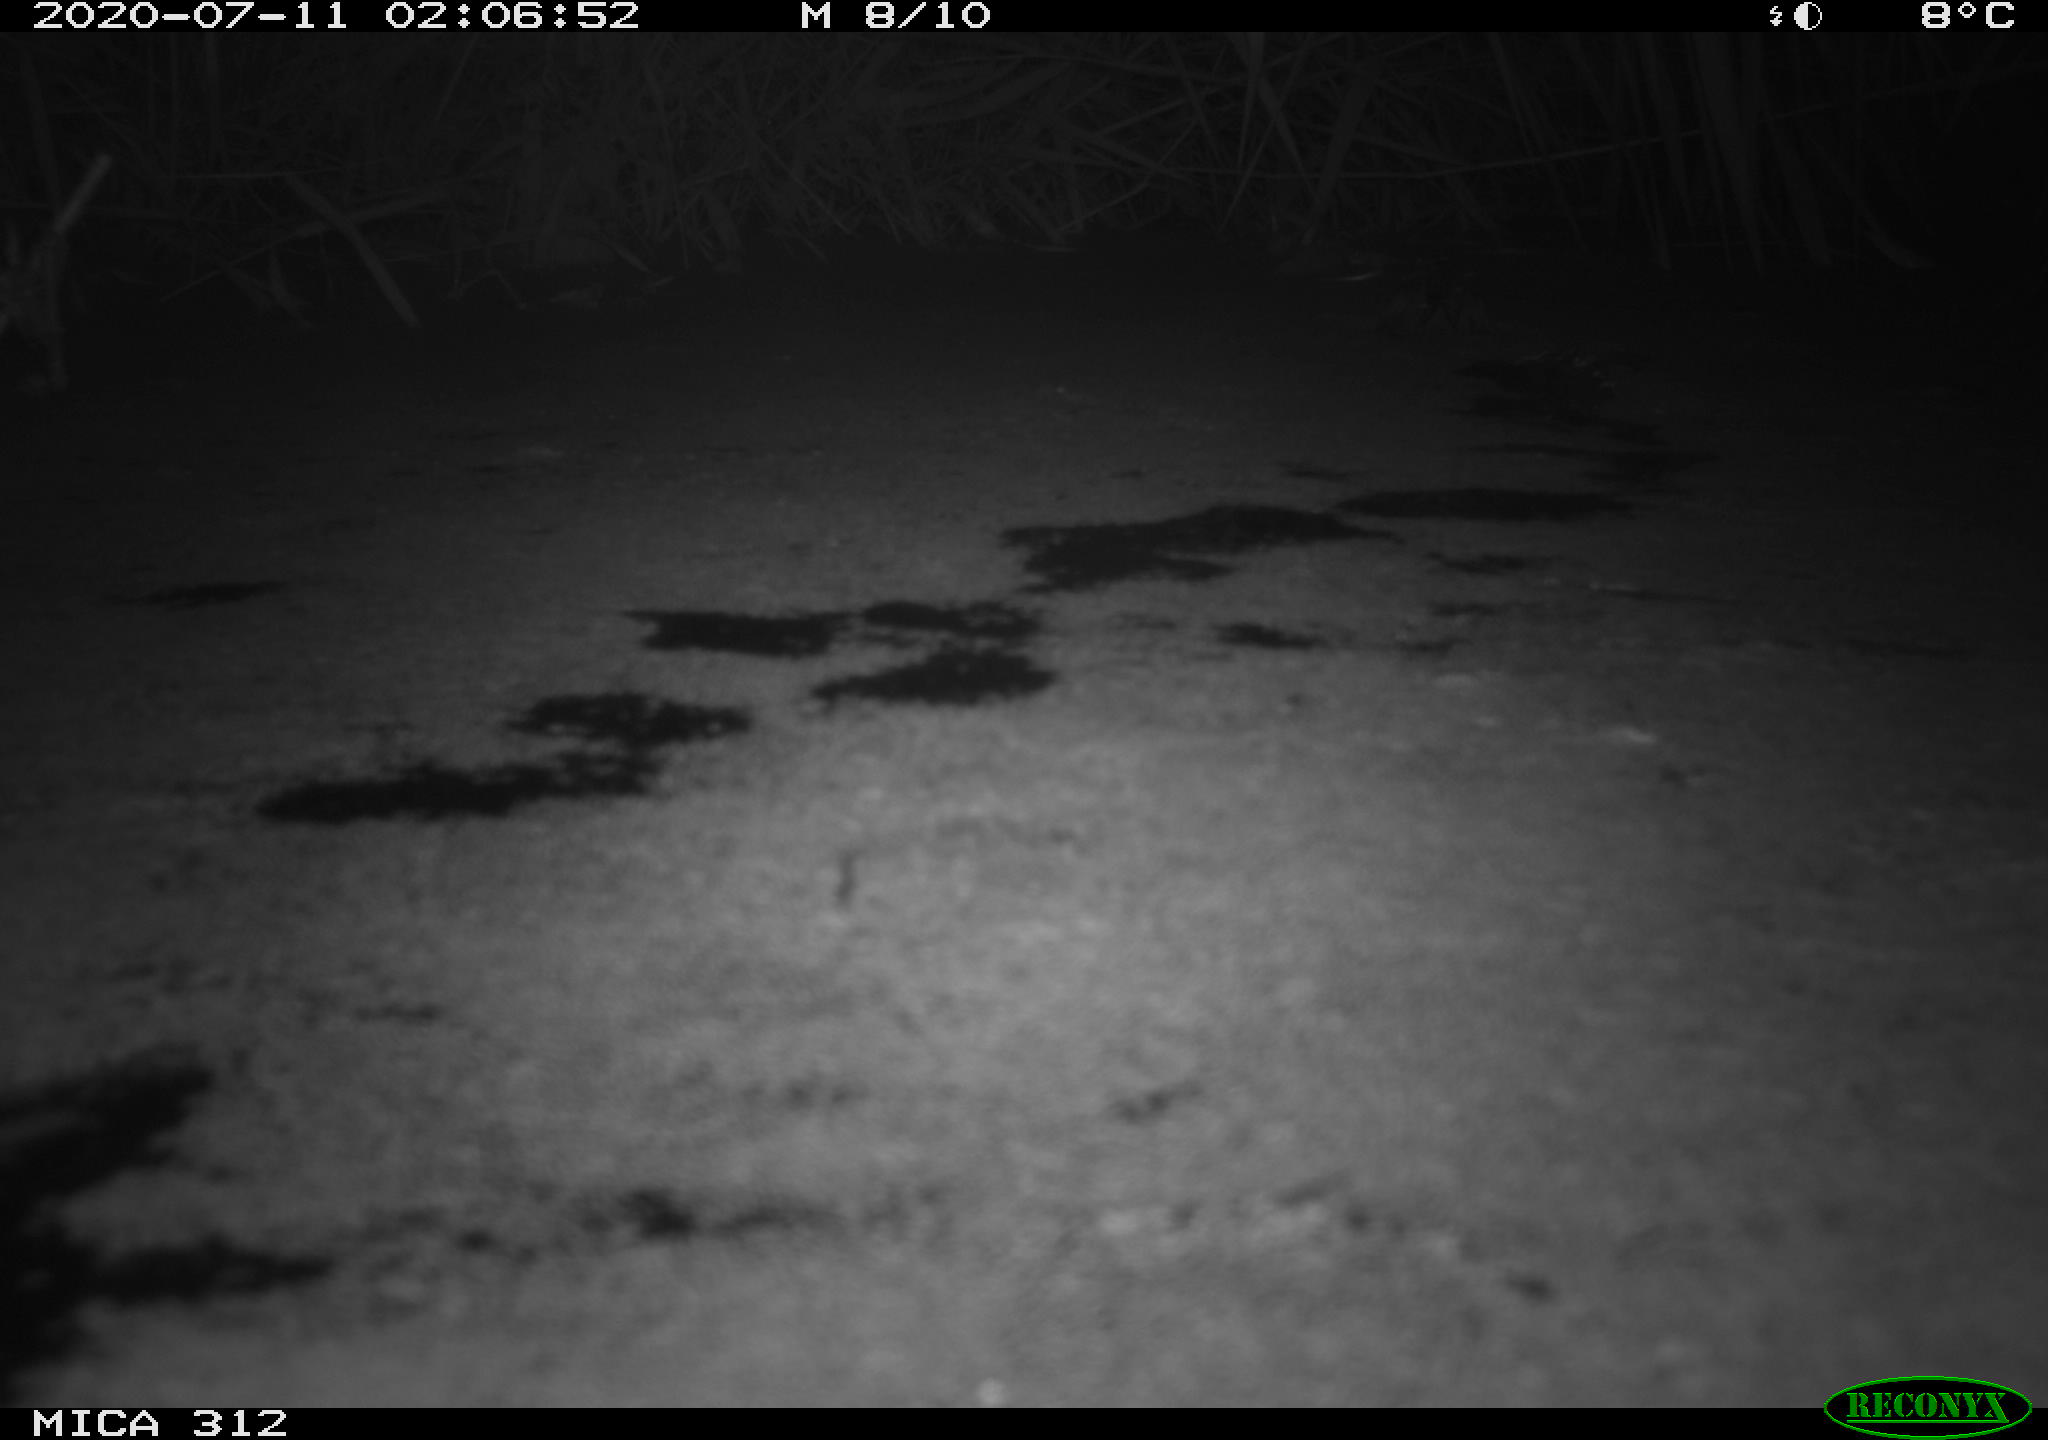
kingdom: Animalia
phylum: Chordata
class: Mammalia
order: Rodentia
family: Cricetidae
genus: Ondatra
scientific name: Ondatra zibethicus
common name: Muskrat
